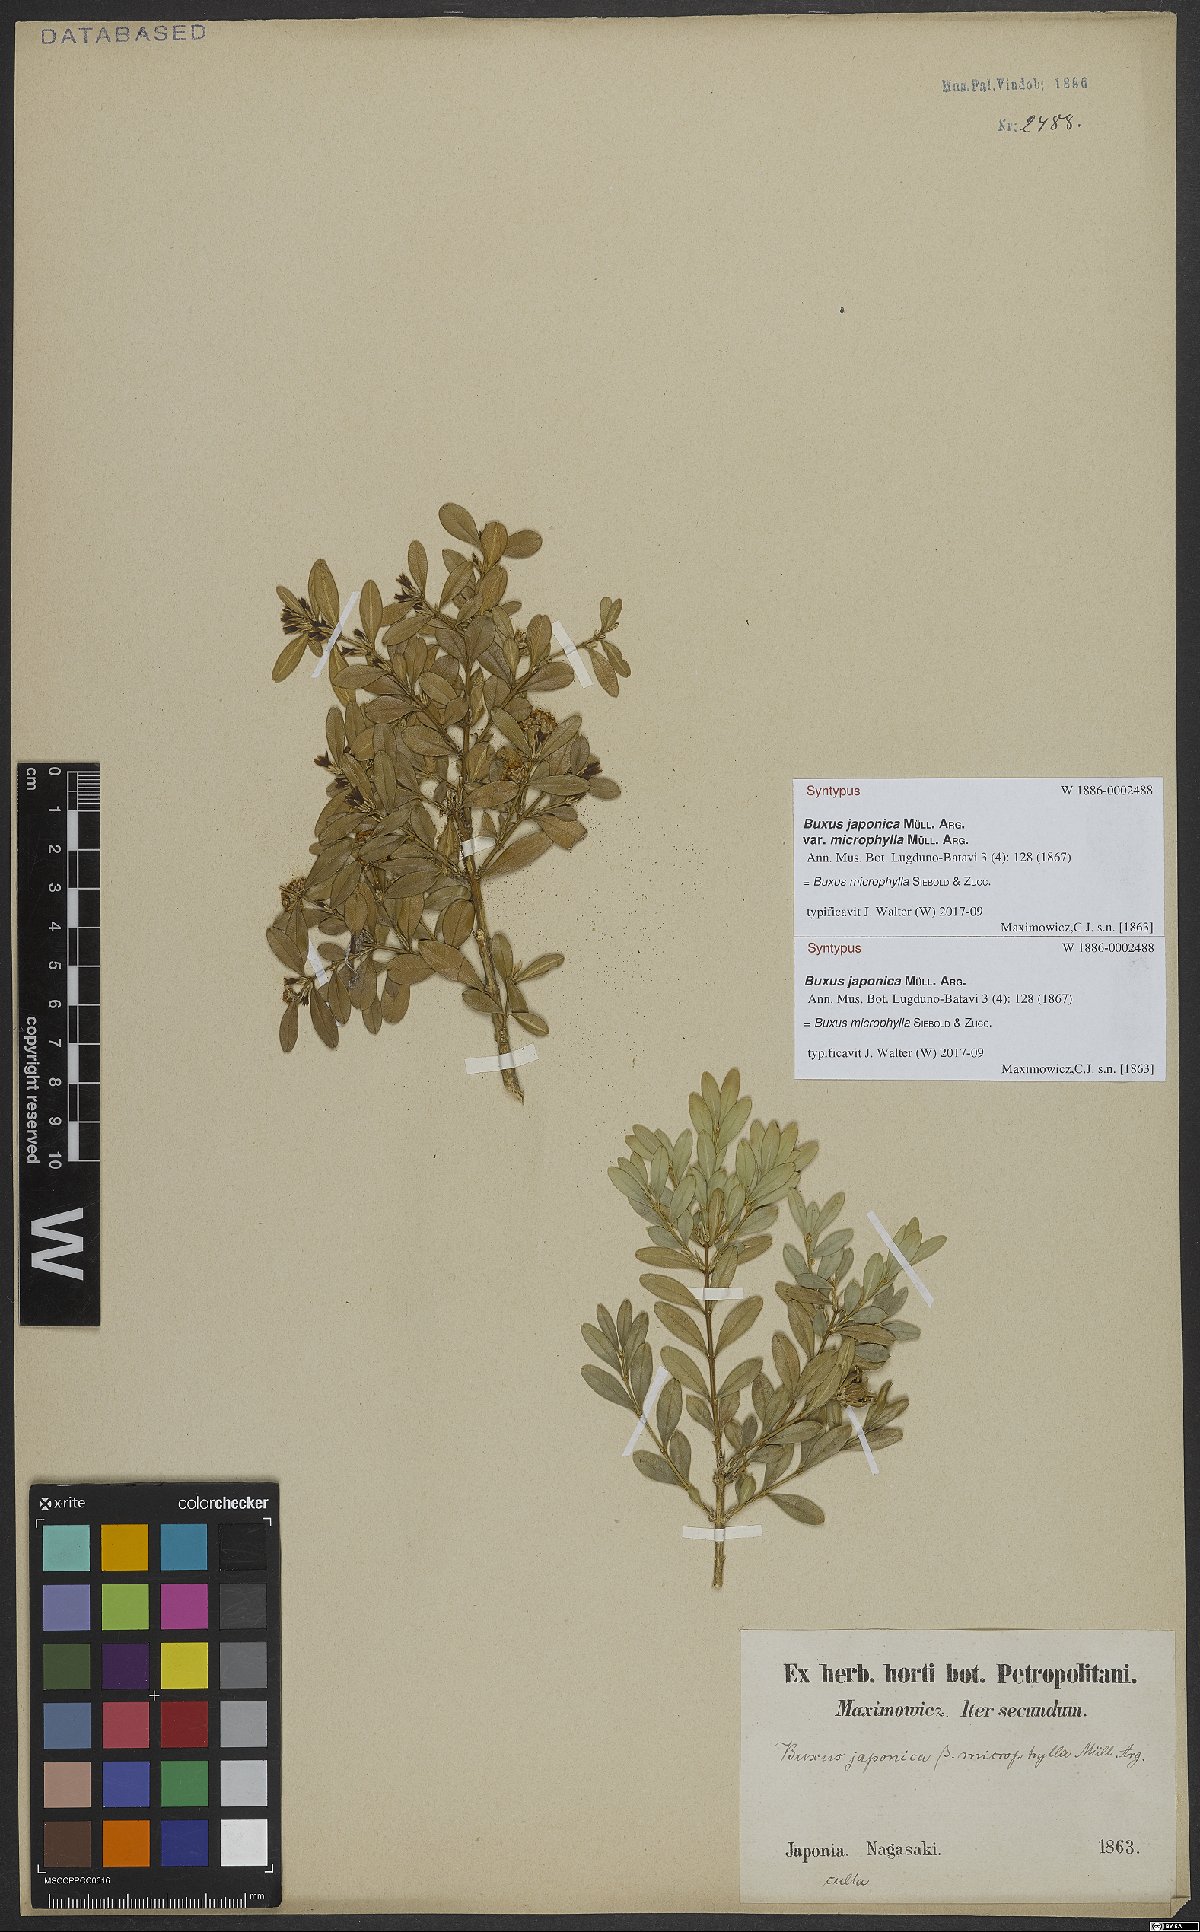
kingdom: Plantae
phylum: Tracheophyta
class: Magnoliopsida
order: Buxales
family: Buxaceae
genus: Buxus
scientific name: Buxus microphylla
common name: Littleleaf boxwood
